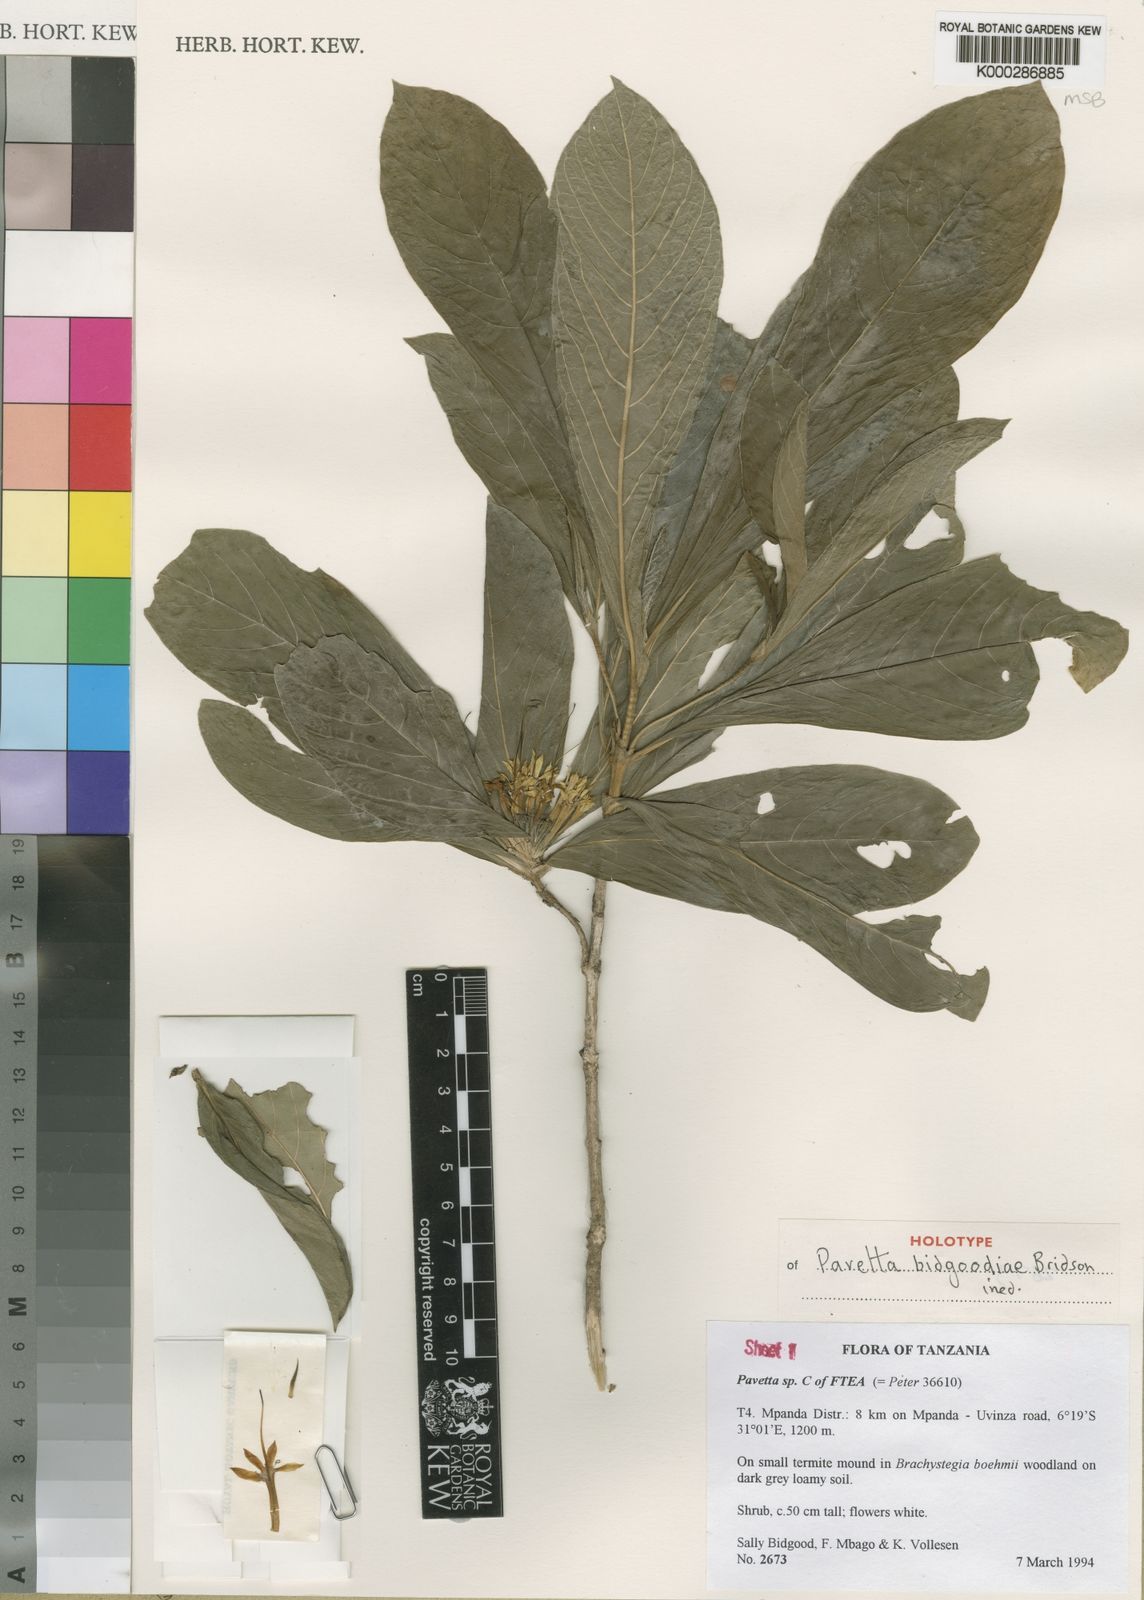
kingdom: Plantae
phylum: Tracheophyta
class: Magnoliopsida
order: Gentianales
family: Rubiaceae
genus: Pavetta
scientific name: Pavetta bidgoodiae
